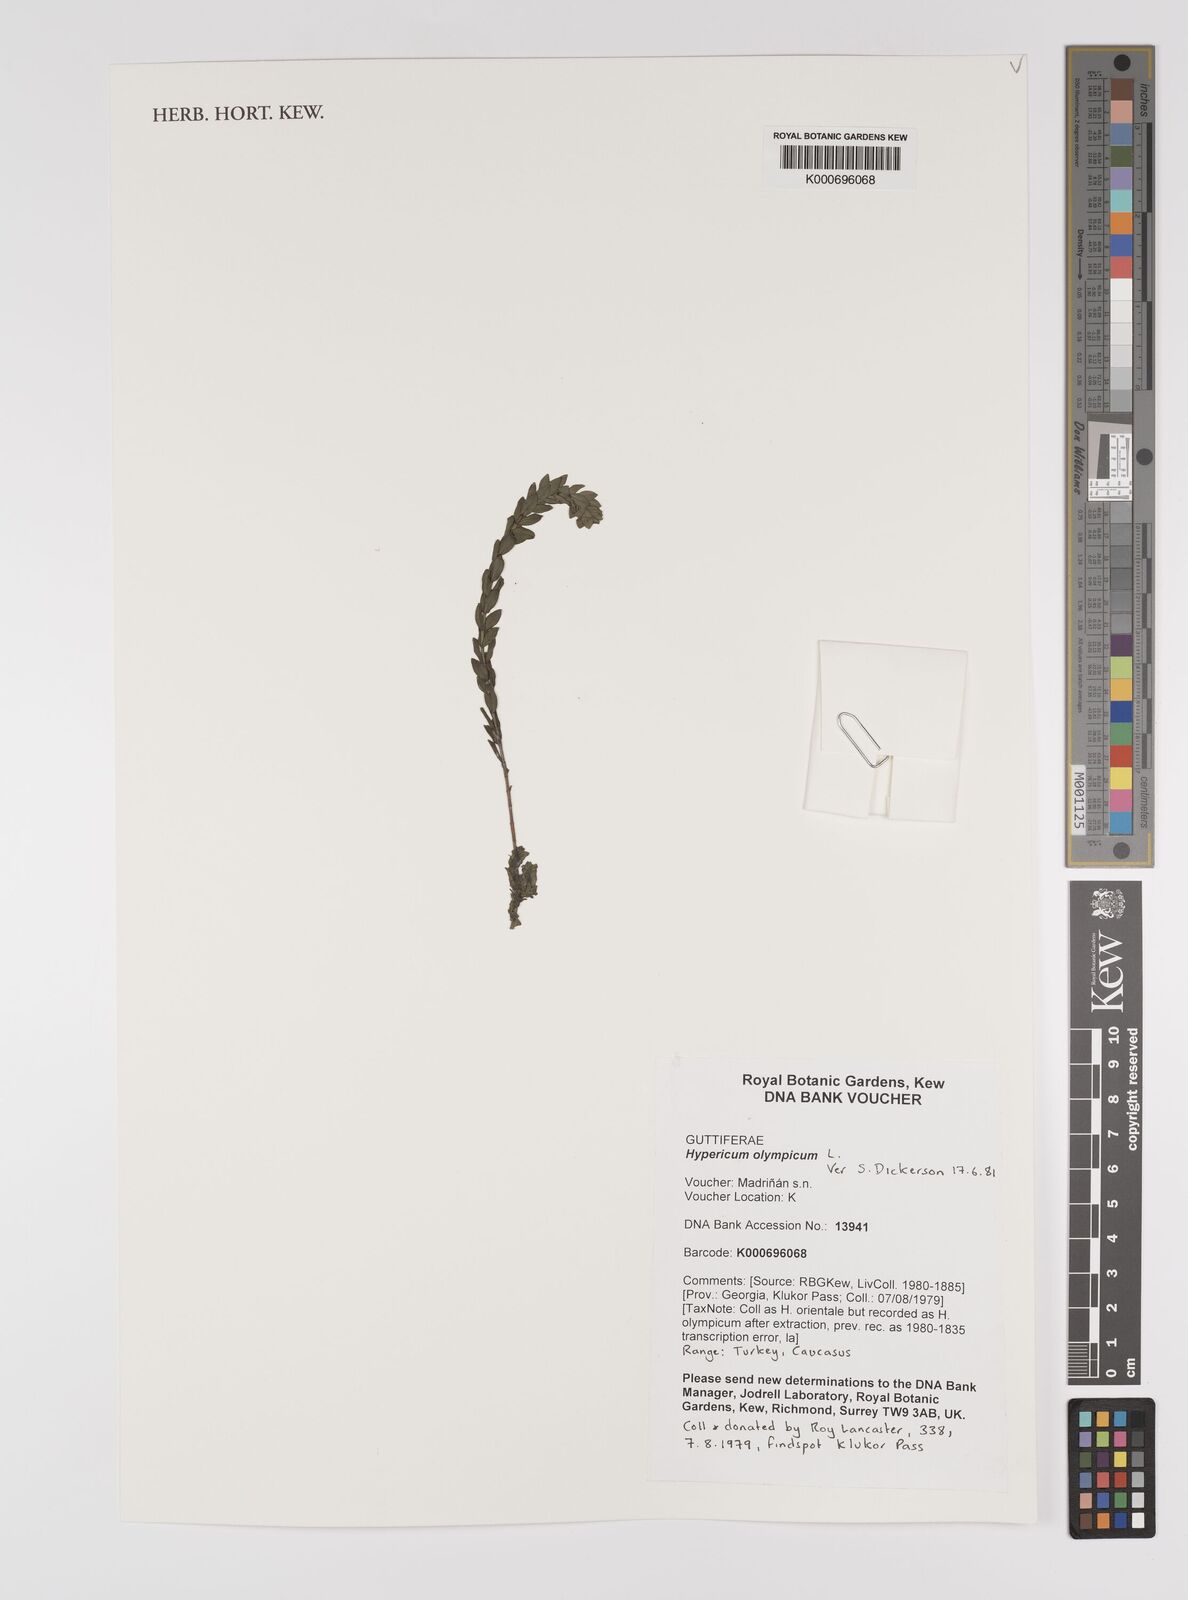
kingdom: Plantae
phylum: Tracheophyta
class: Magnoliopsida
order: Malpighiales
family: Hypericaceae
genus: Hypericum
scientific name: Hypericum olympicum
